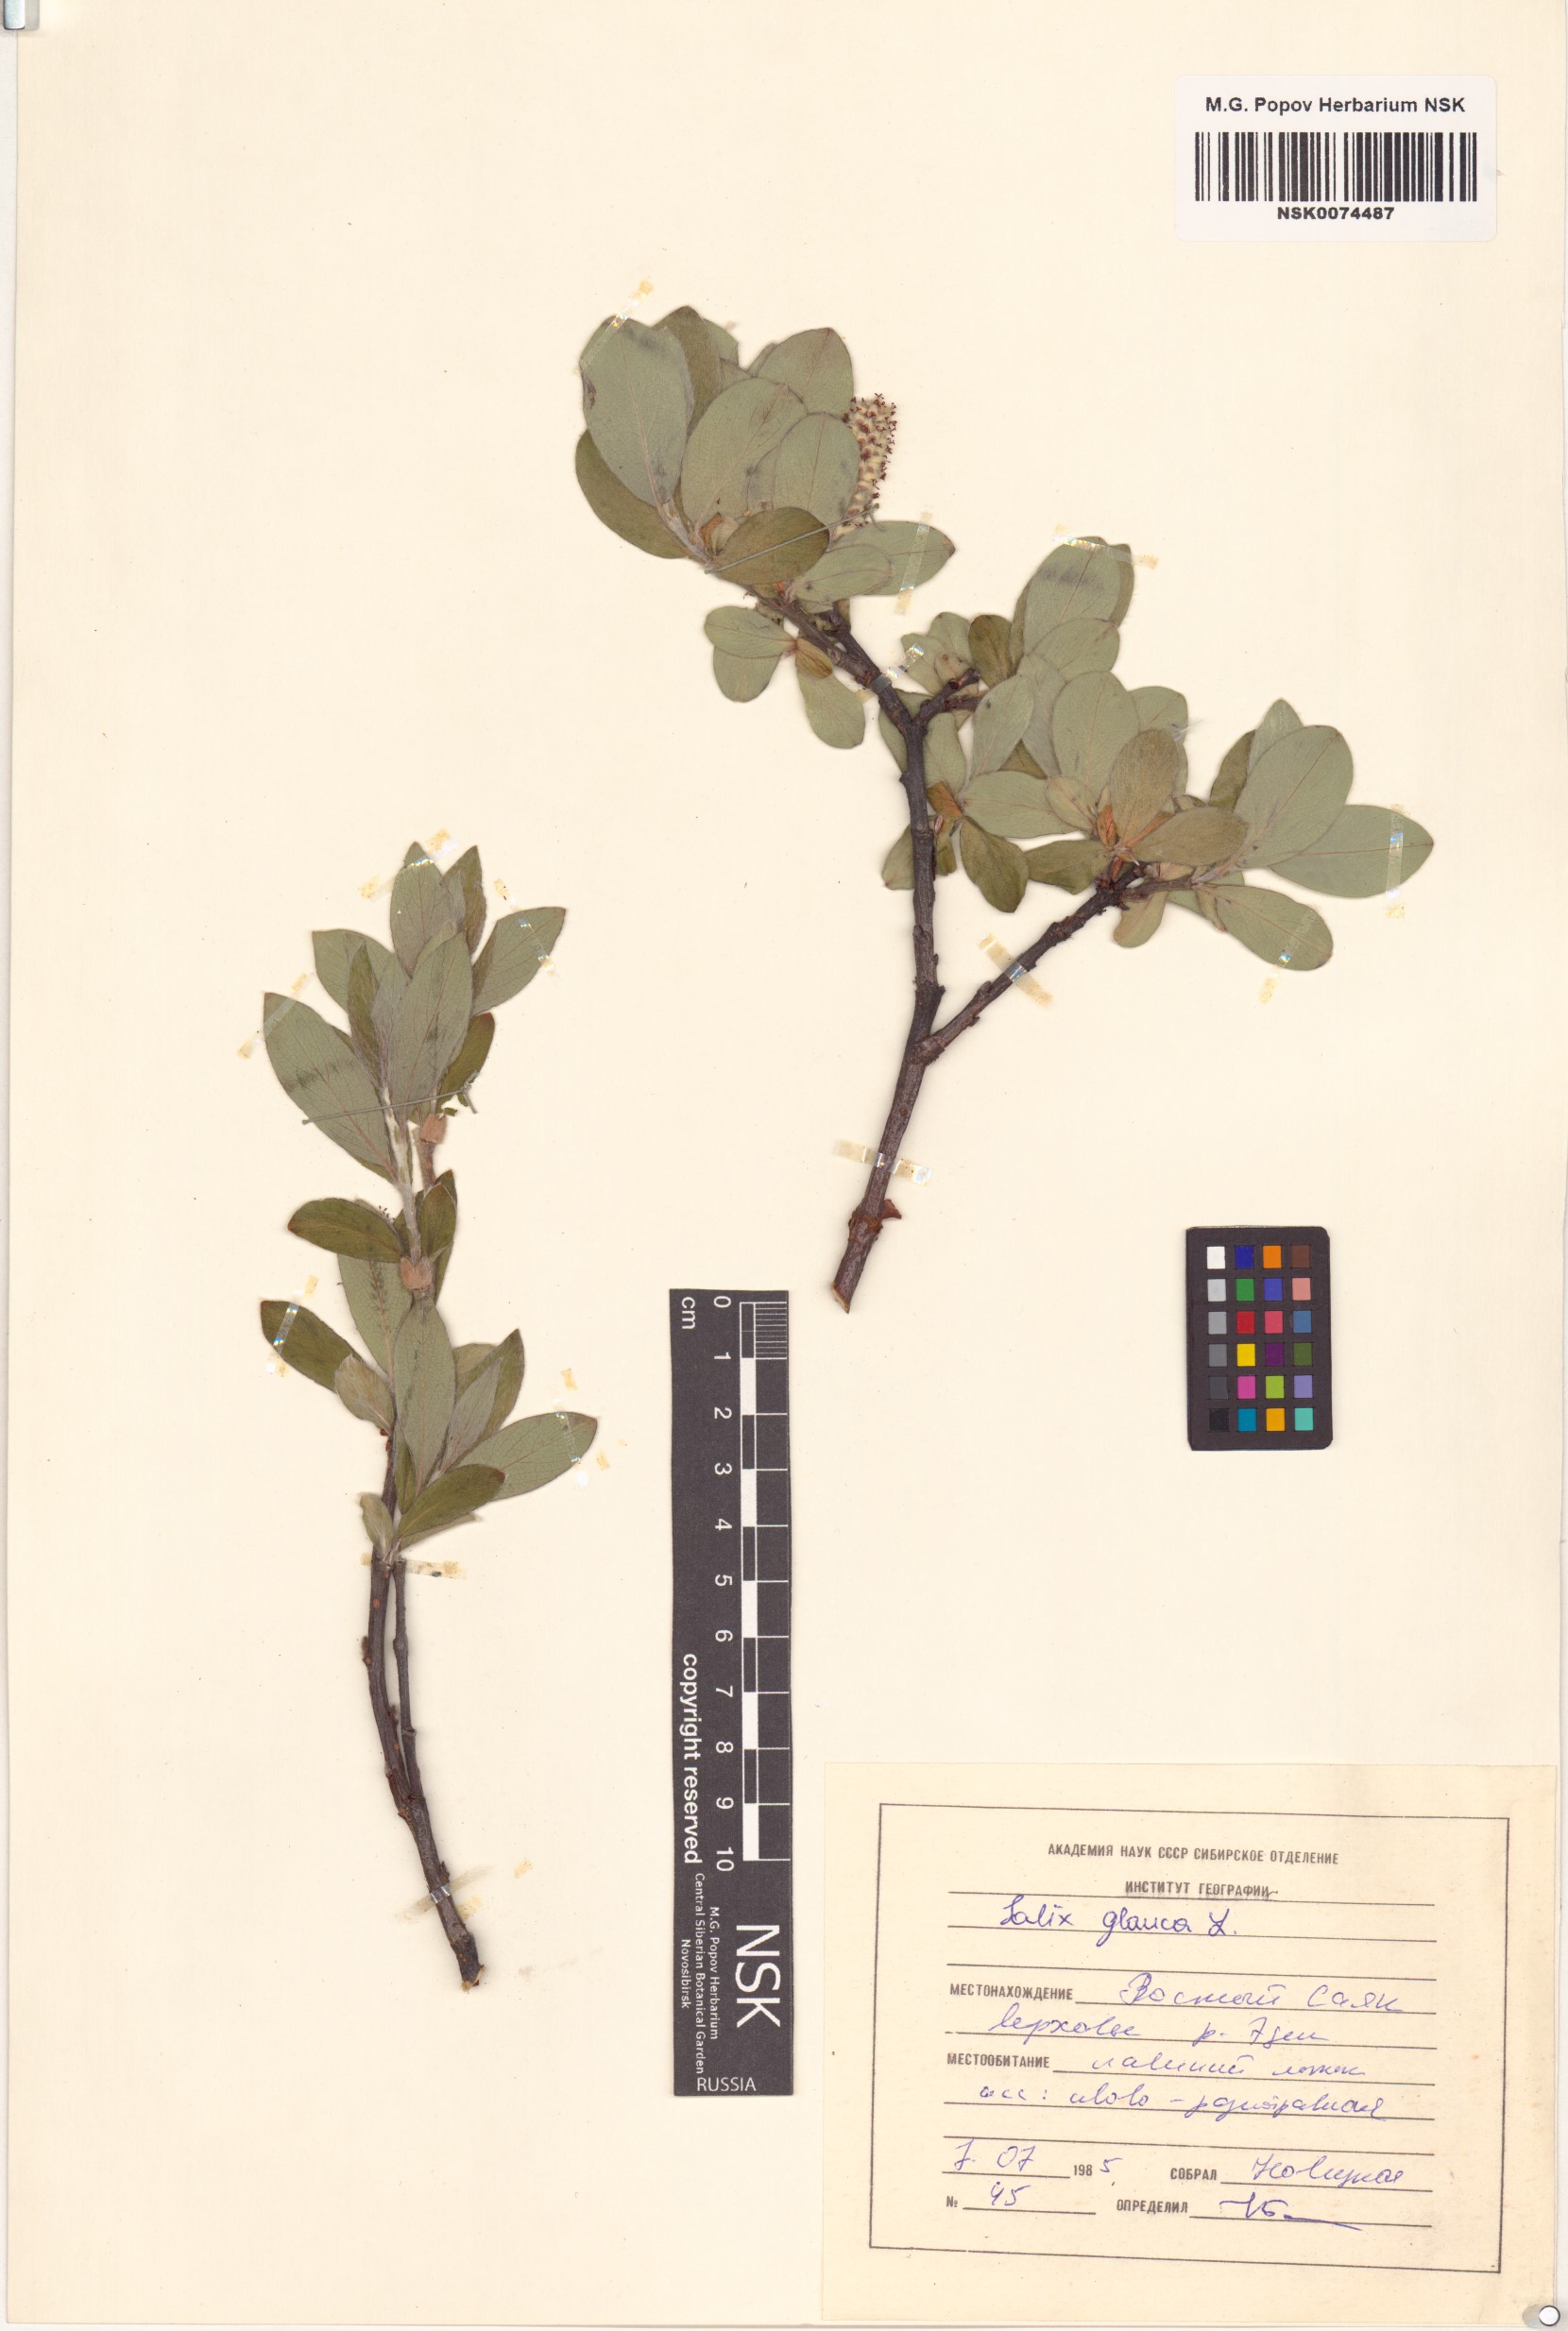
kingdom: Plantae
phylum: Tracheophyta
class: Magnoliopsida
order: Malpighiales
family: Salicaceae
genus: Salix
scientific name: Salix glauca
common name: Glaucous willow
